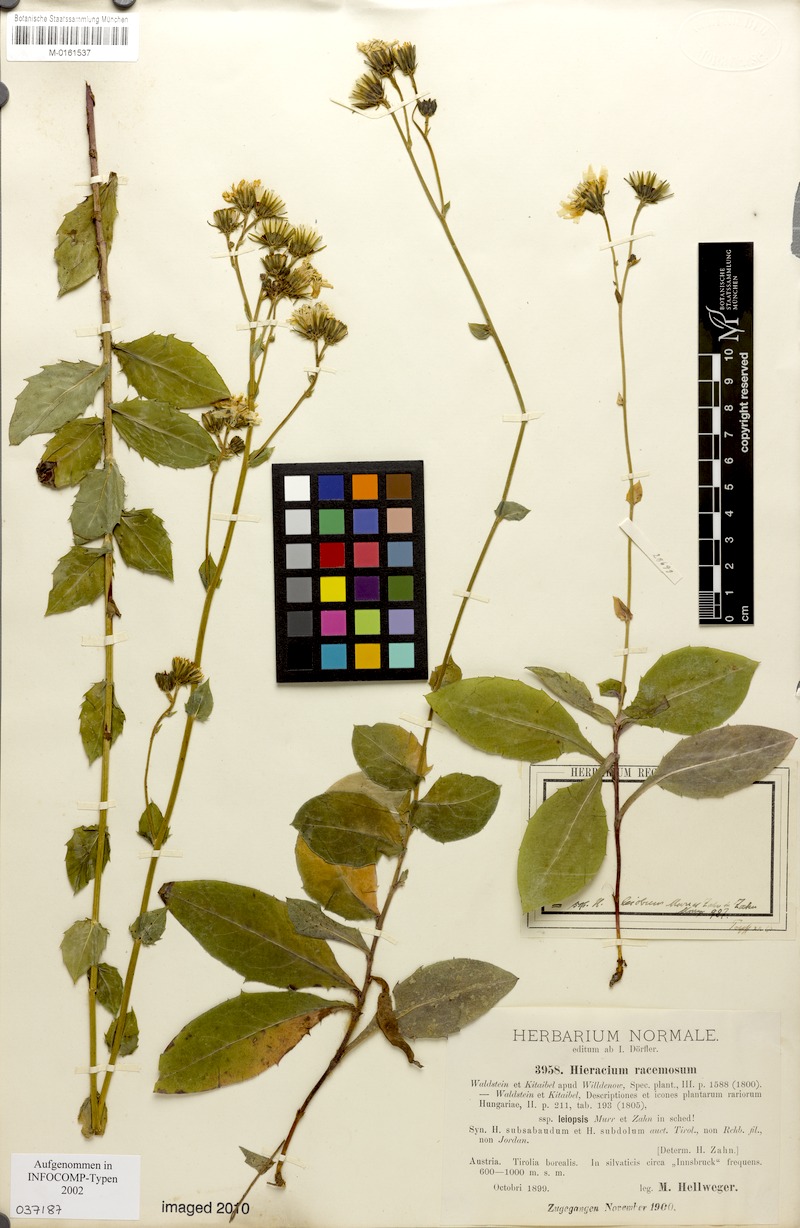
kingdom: Plantae
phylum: Tracheophyta
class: Magnoliopsida
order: Asterales
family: Asteraceae
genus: Hieracium
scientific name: Hieracium racemosum
